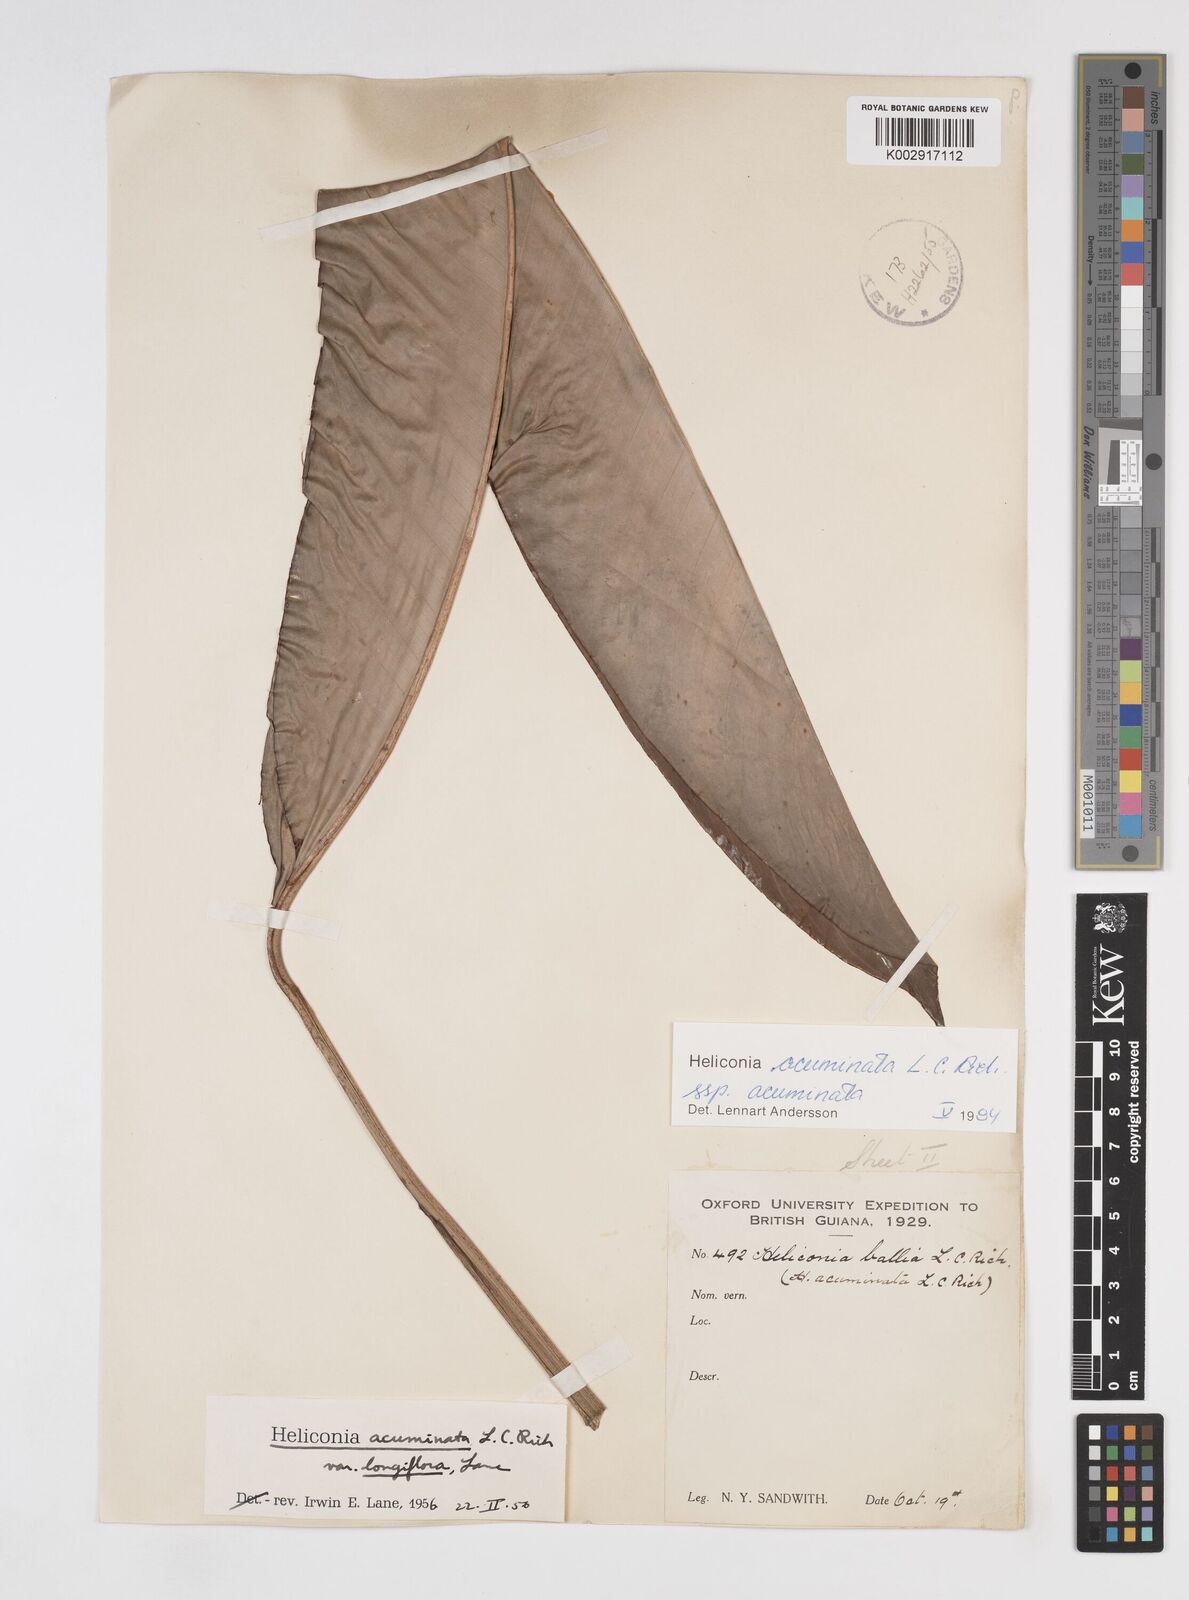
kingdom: Plantae
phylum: Tracheophyta
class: Liliopsida
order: Zingiberales
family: Heliconiaceae
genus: Heliconia
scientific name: Heliconia acuminata
